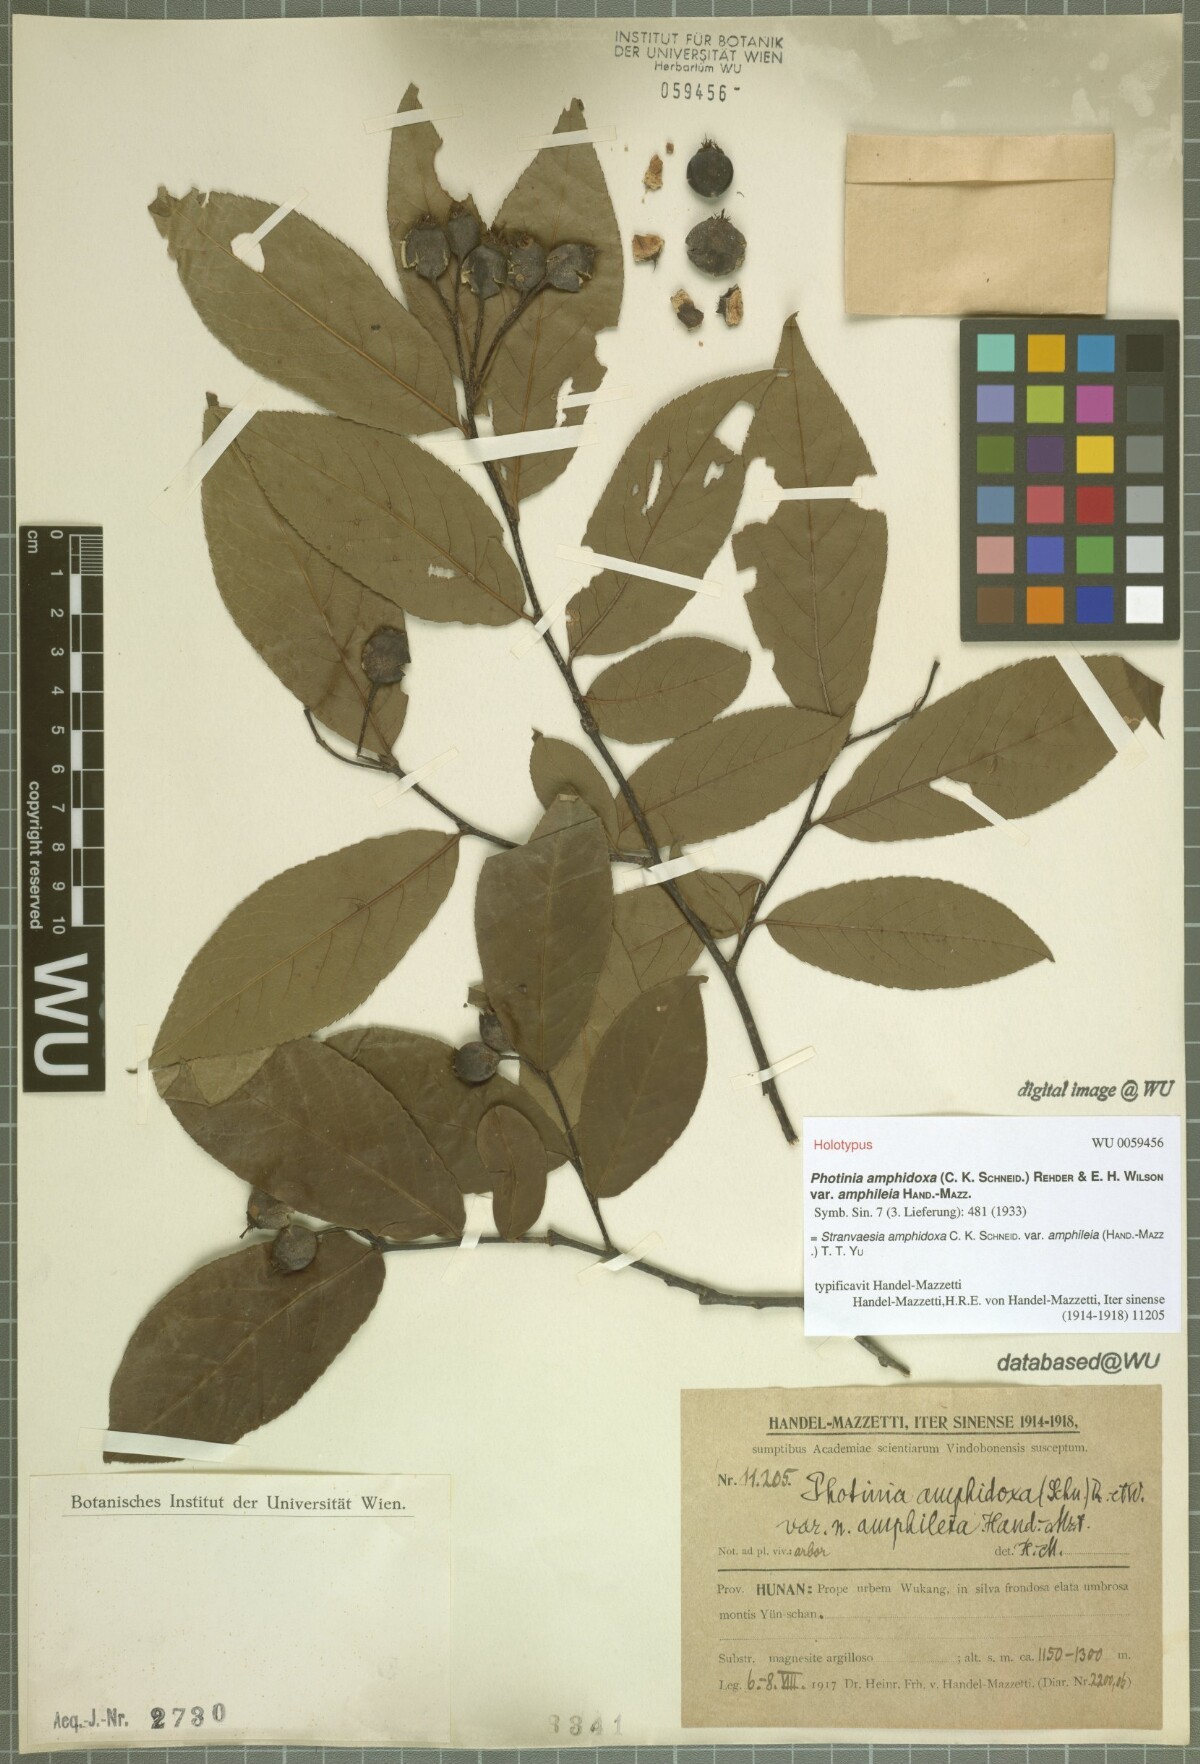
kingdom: Plantae
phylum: Tracheophyta
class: Magnoliopsida
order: Rosales
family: Rosaceae
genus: Pourthiaea
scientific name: Pourthiaea amphidoxa
